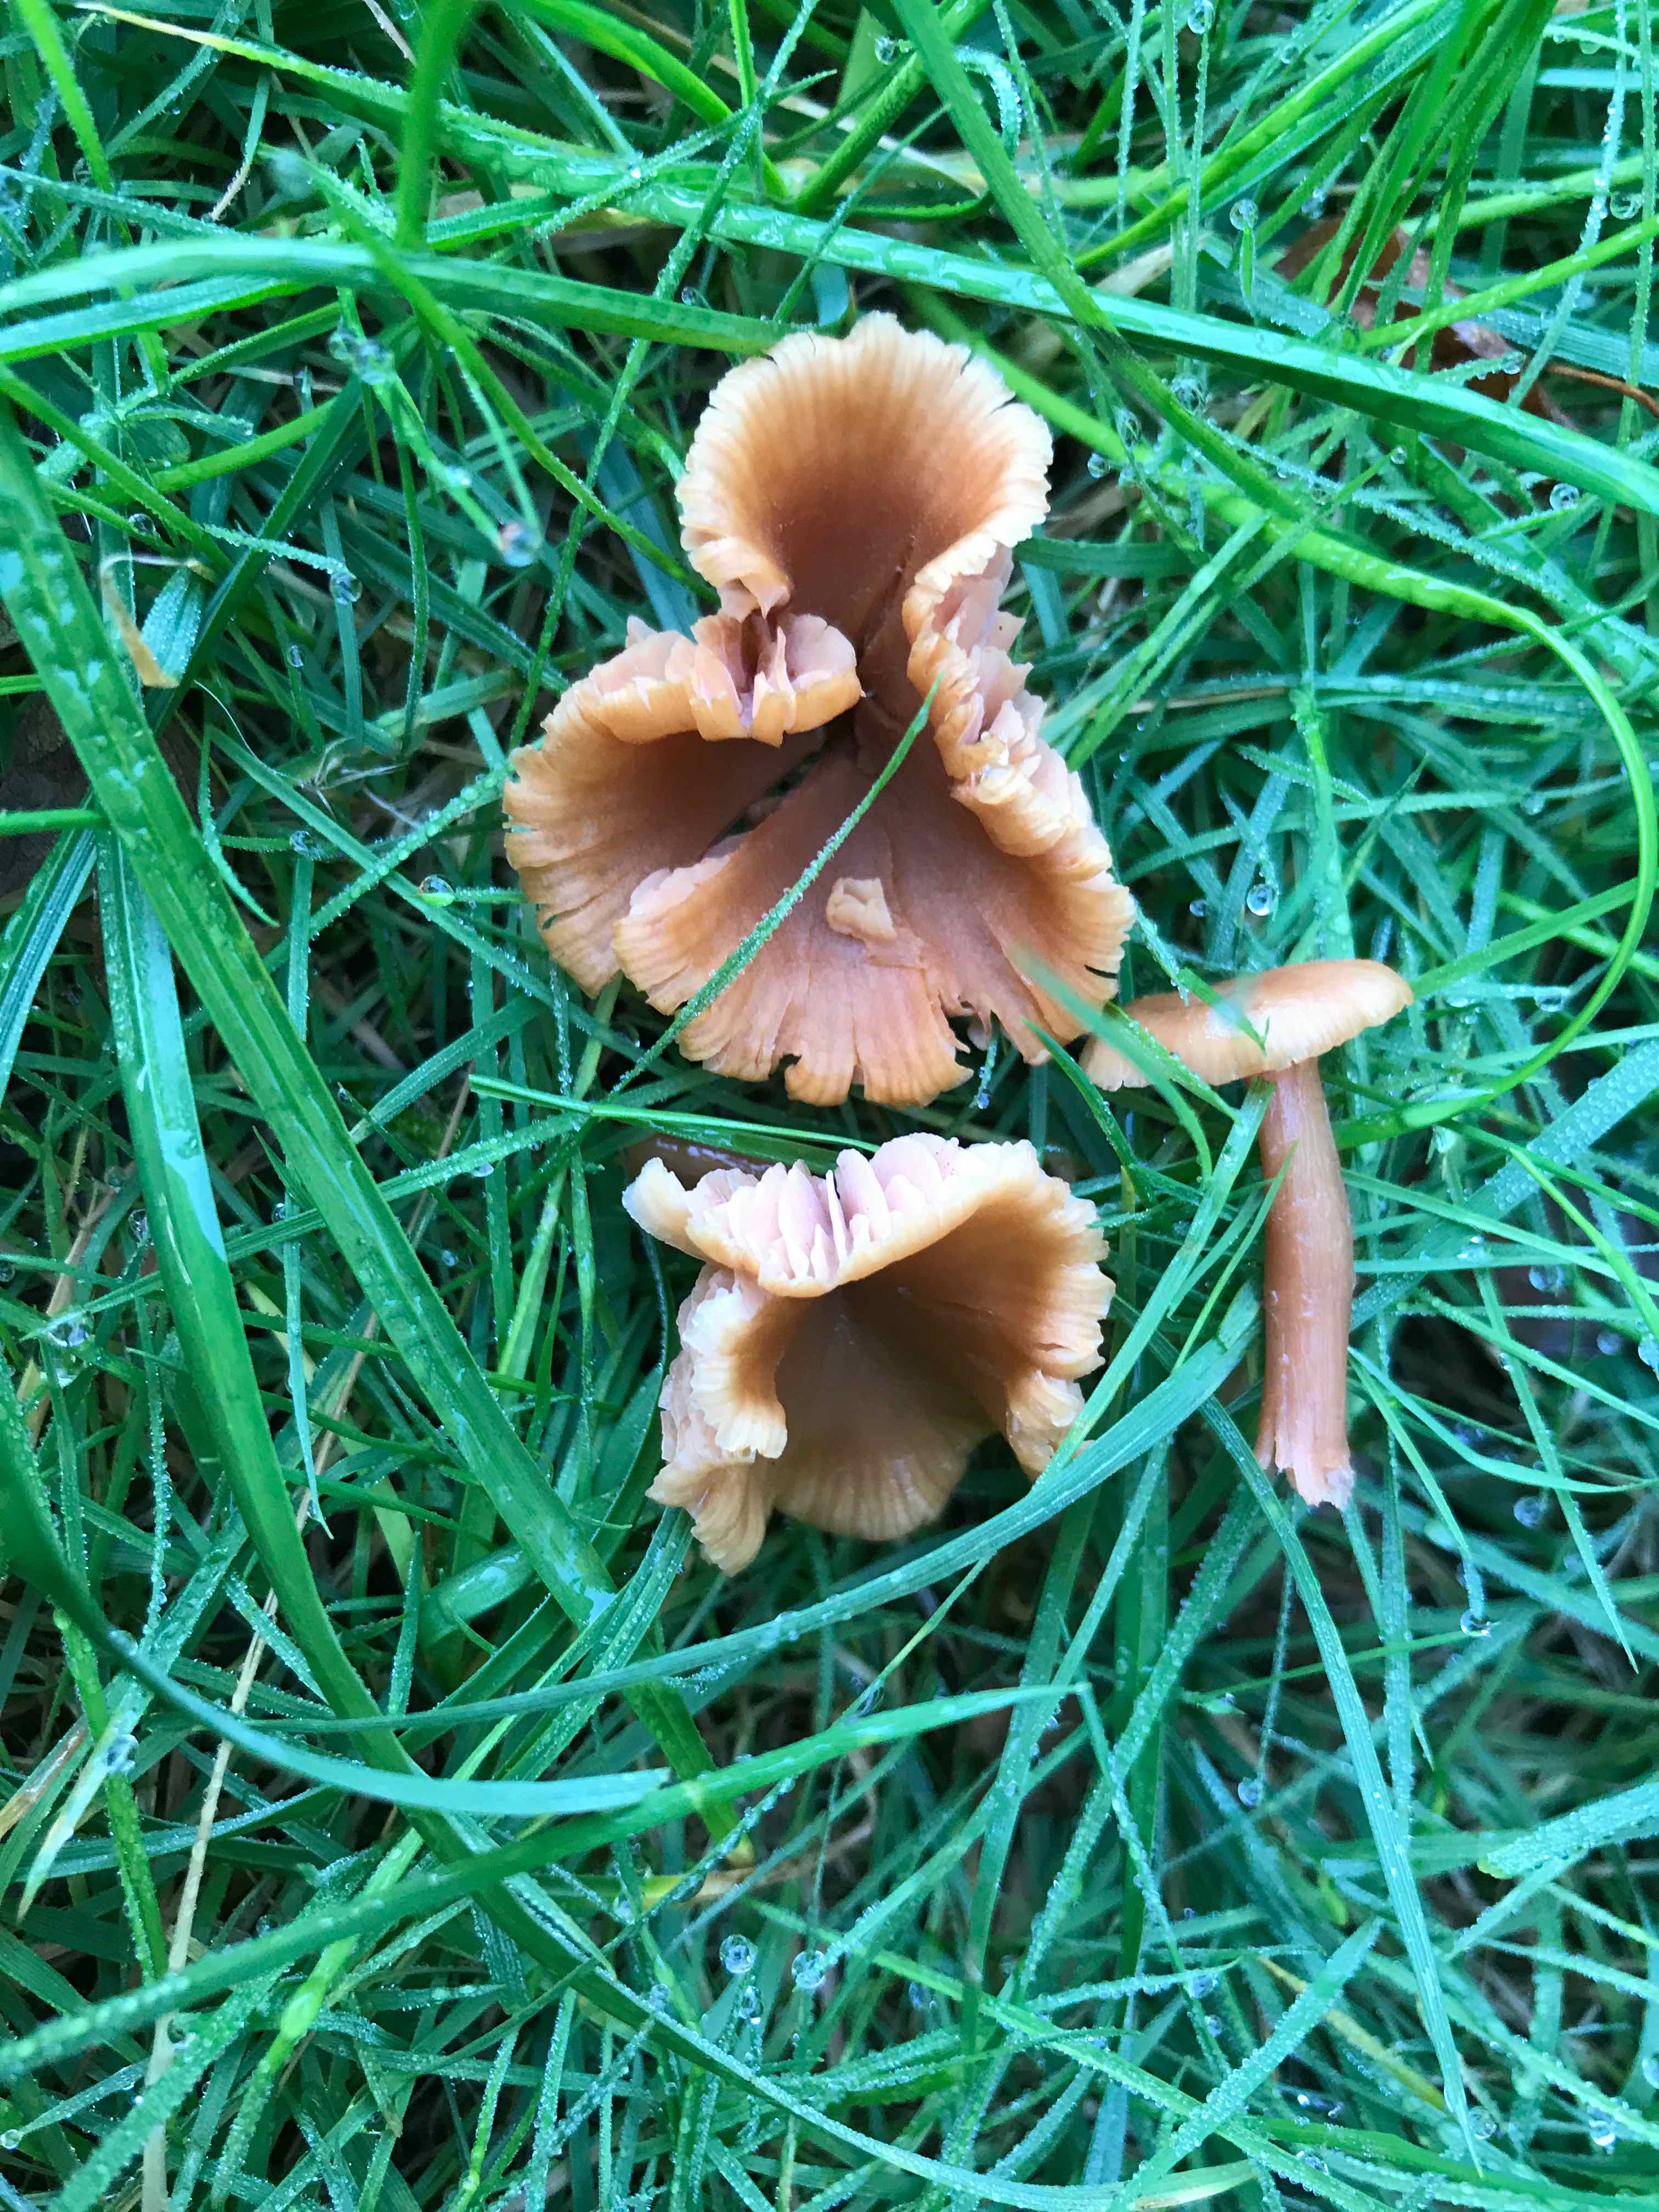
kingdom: Fungi
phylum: Basidiomycota
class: Agaricomycetes
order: Agaricales
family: Hydnangiaceae
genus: Laccaria
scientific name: Laccaria laccata
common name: rød ametysthat
